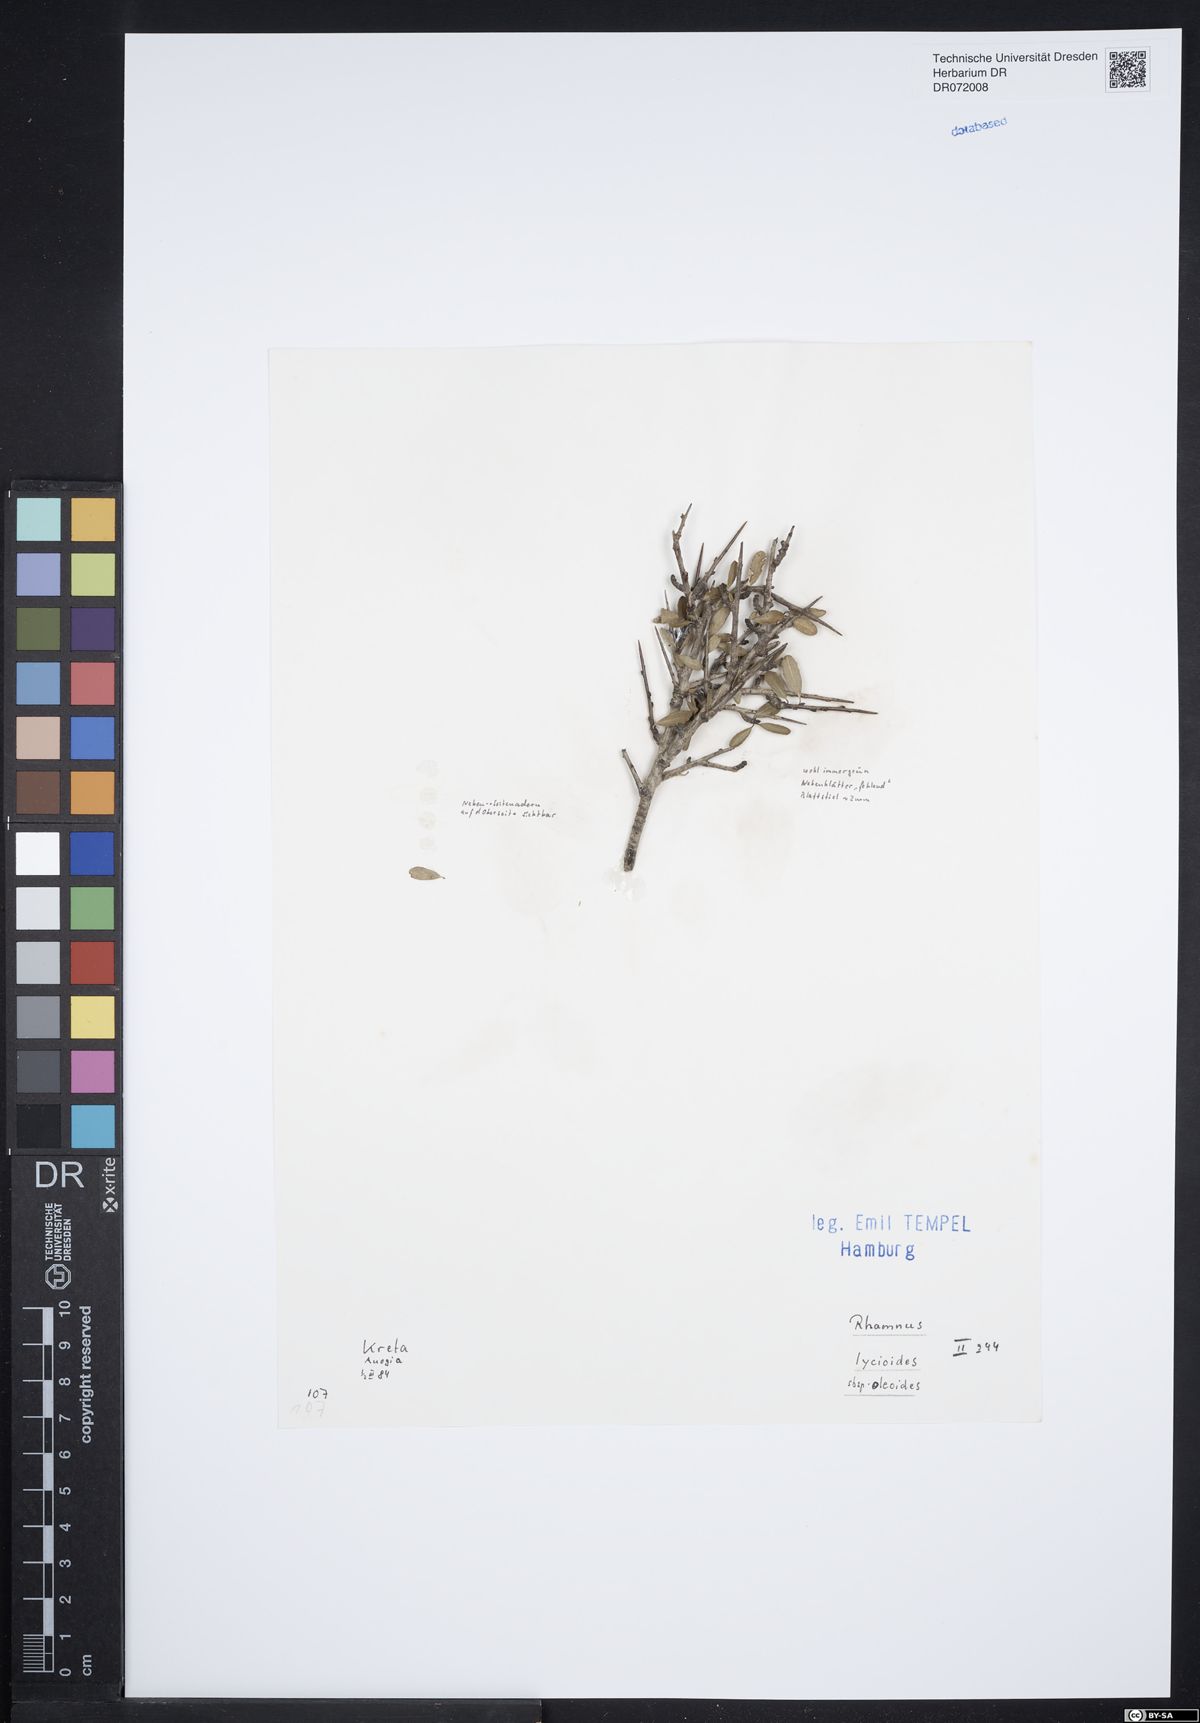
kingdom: Plantae
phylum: Tracheophyta
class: Magnoliopsida
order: Rosales
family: Rhamnaceae
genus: Rhamnus
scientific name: Rhamnus oleoides
